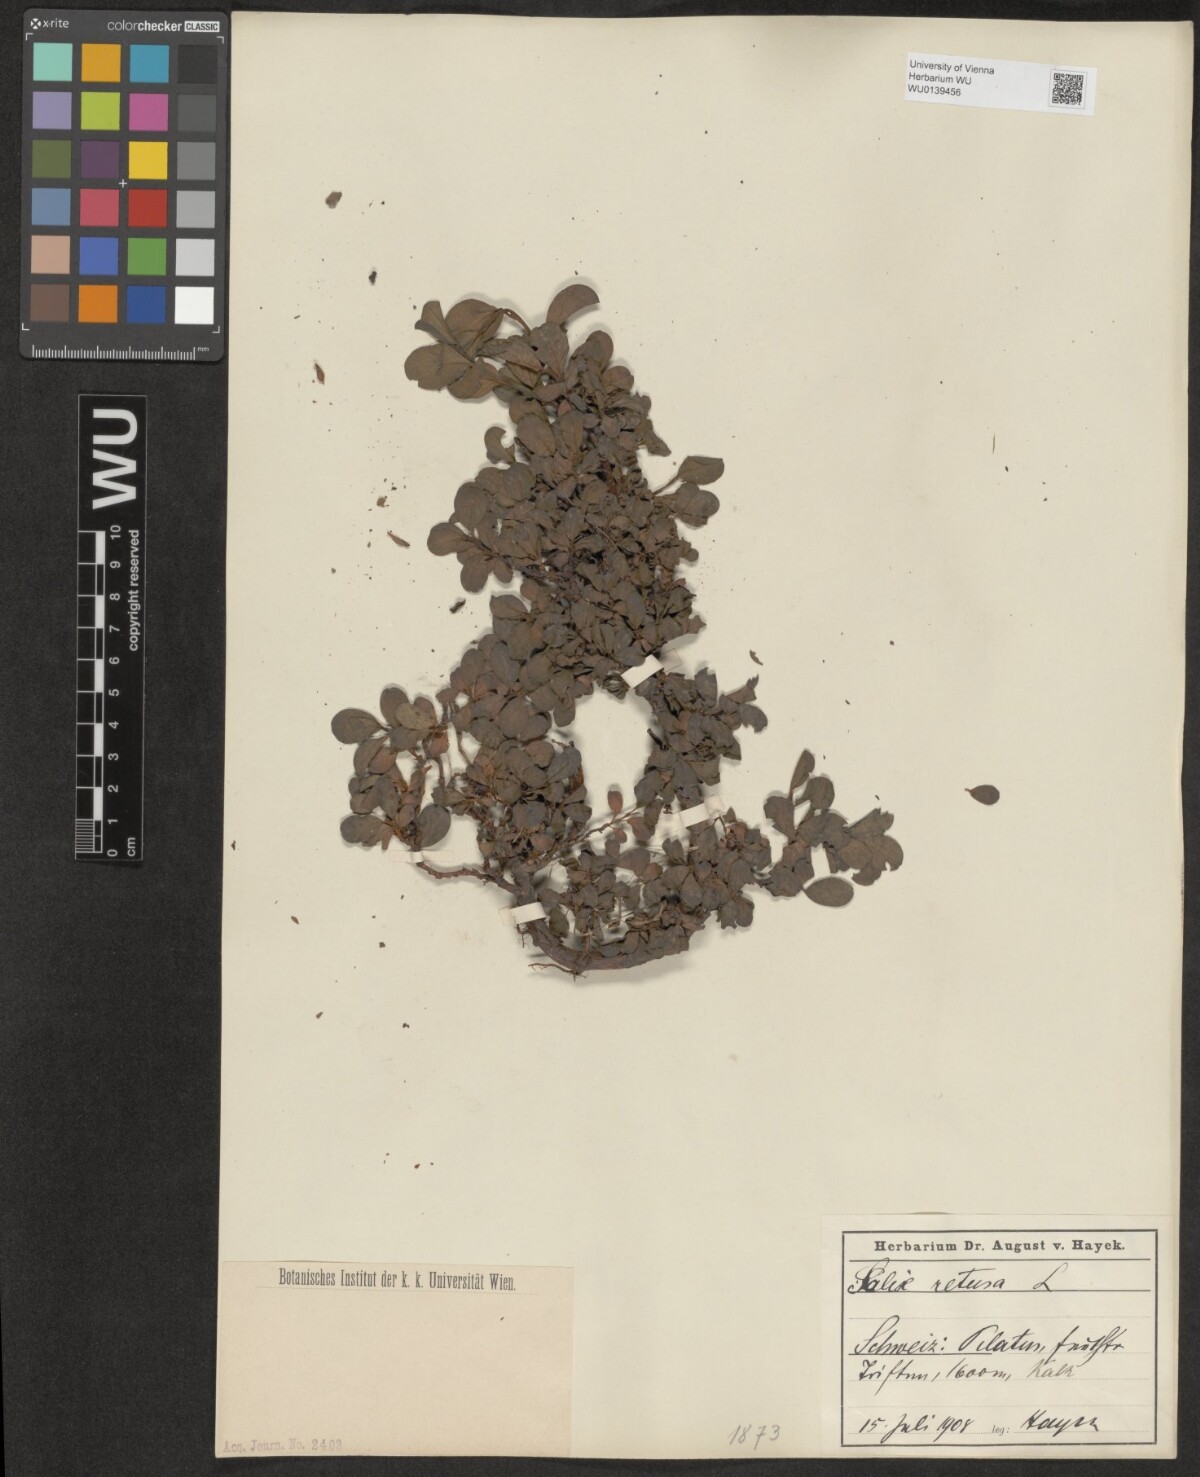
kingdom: Plantae
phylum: Tracheophyta
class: Magnoliopsida
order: Malpighiales
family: Salicaceae
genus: Salix
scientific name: Salix retusa
